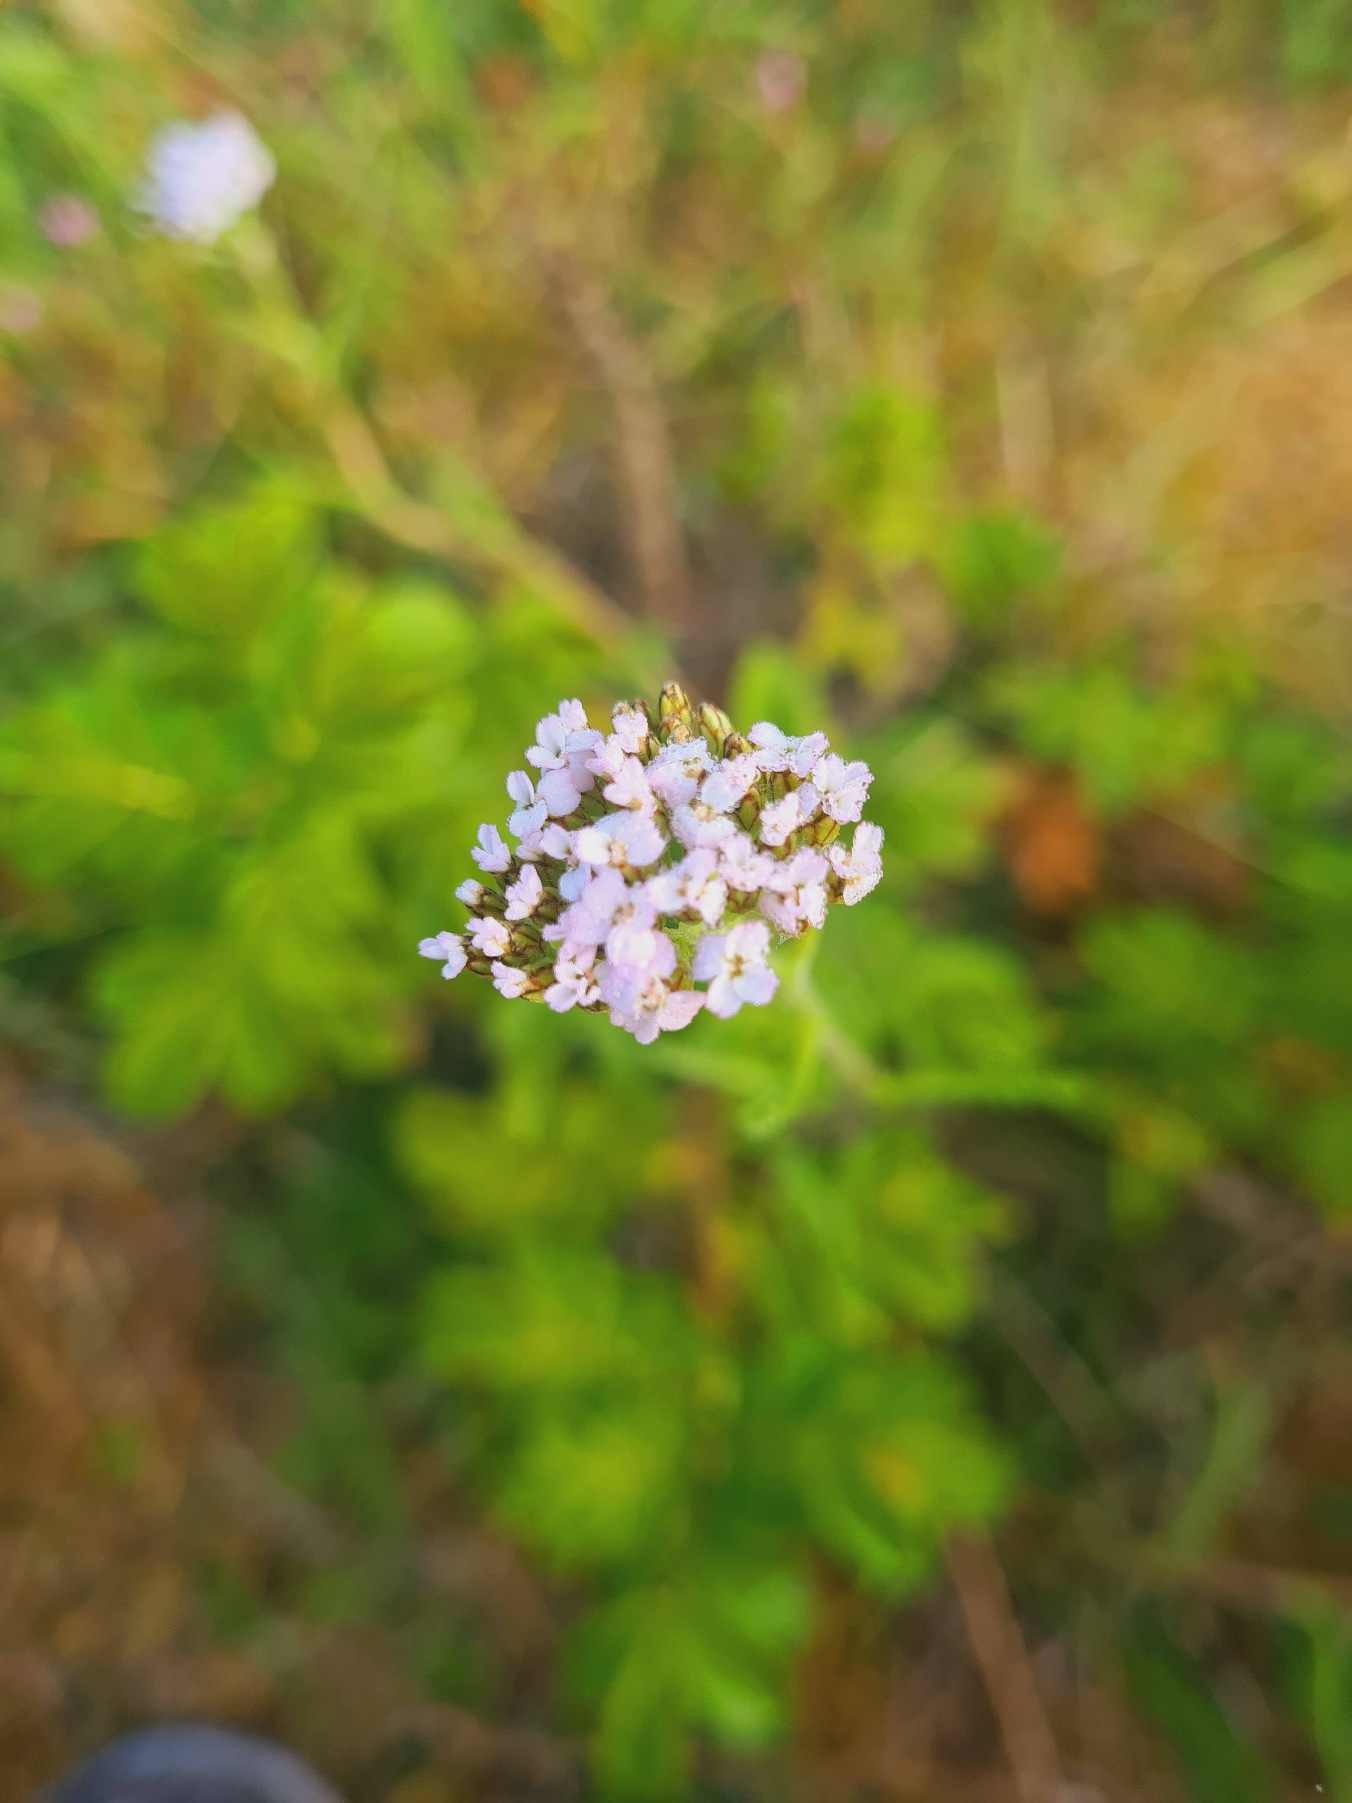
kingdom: Plantae
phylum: Tracheophyta
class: Magnoliopsida
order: Asterales
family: Asteraceae
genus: Achillea
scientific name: Achillea millefolium
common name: Almindelig røllike
